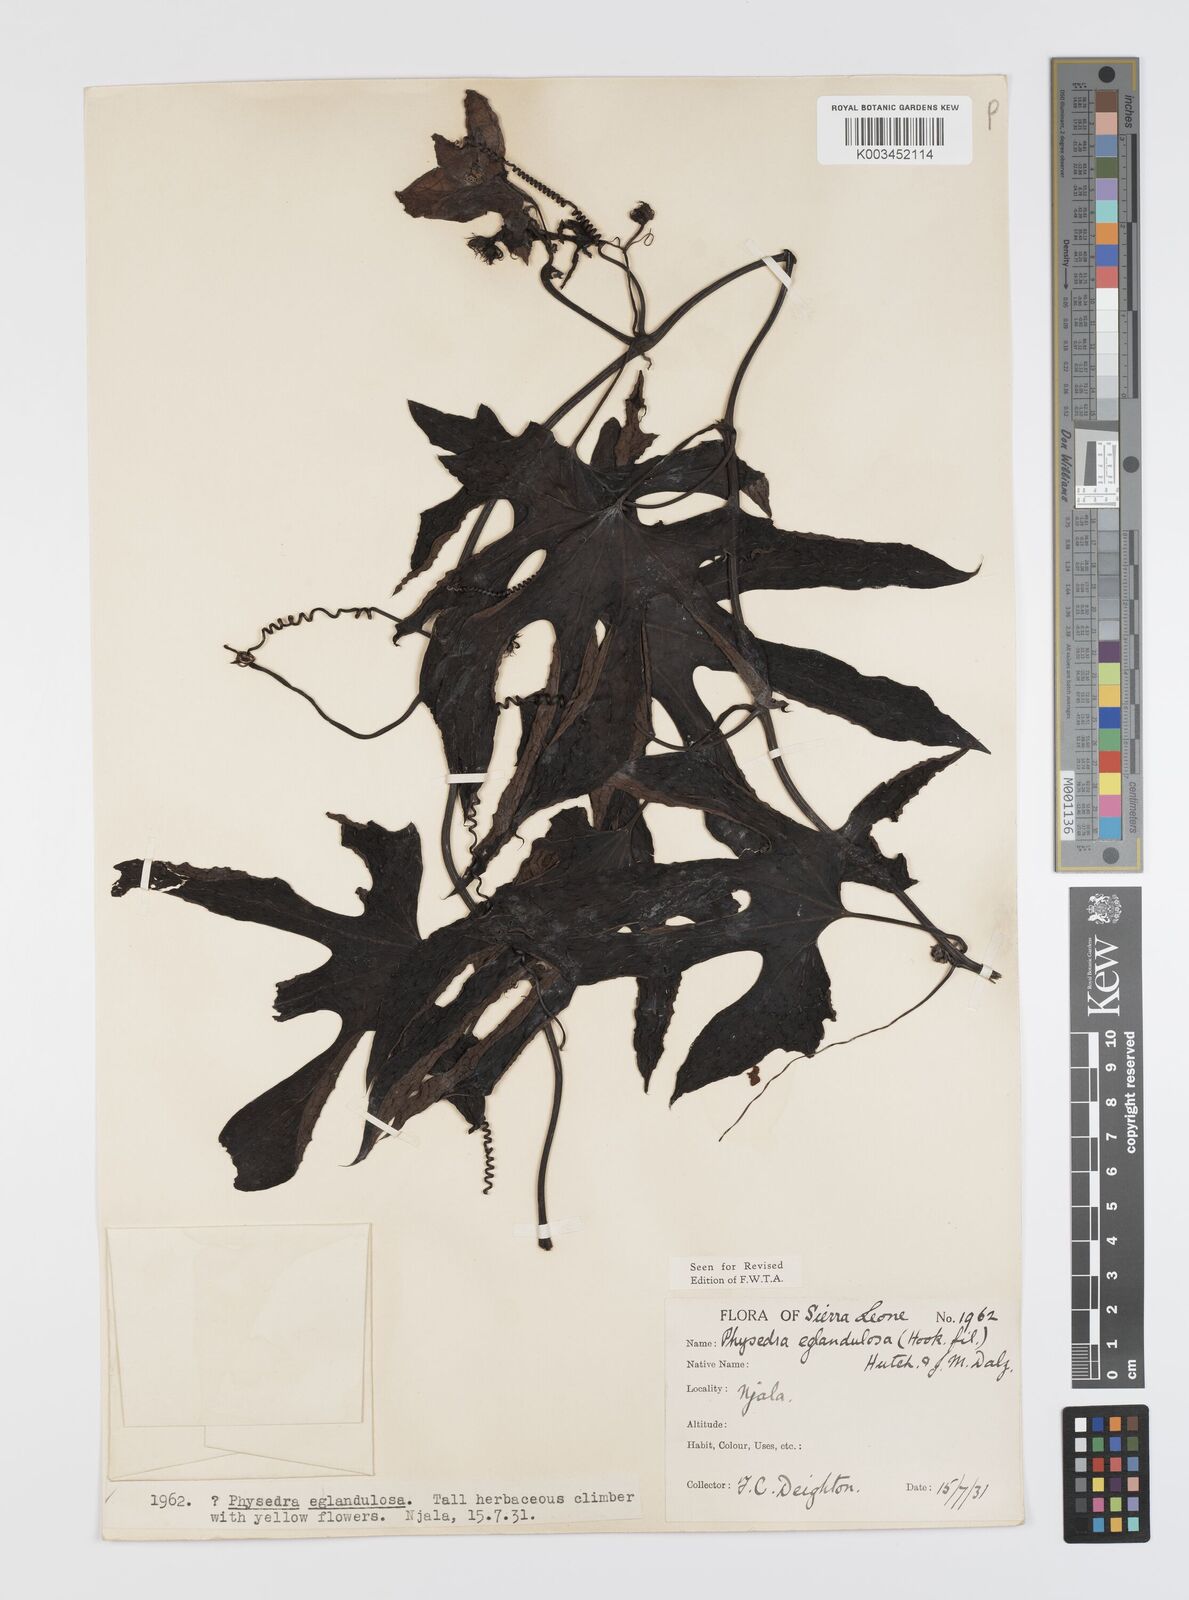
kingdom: Plantae
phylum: Tracheophyta
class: Magnoliopsida
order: Cucurbitales
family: Cucurbitaceae
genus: Ruthalicia
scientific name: Ruthalicia eglandulosa
